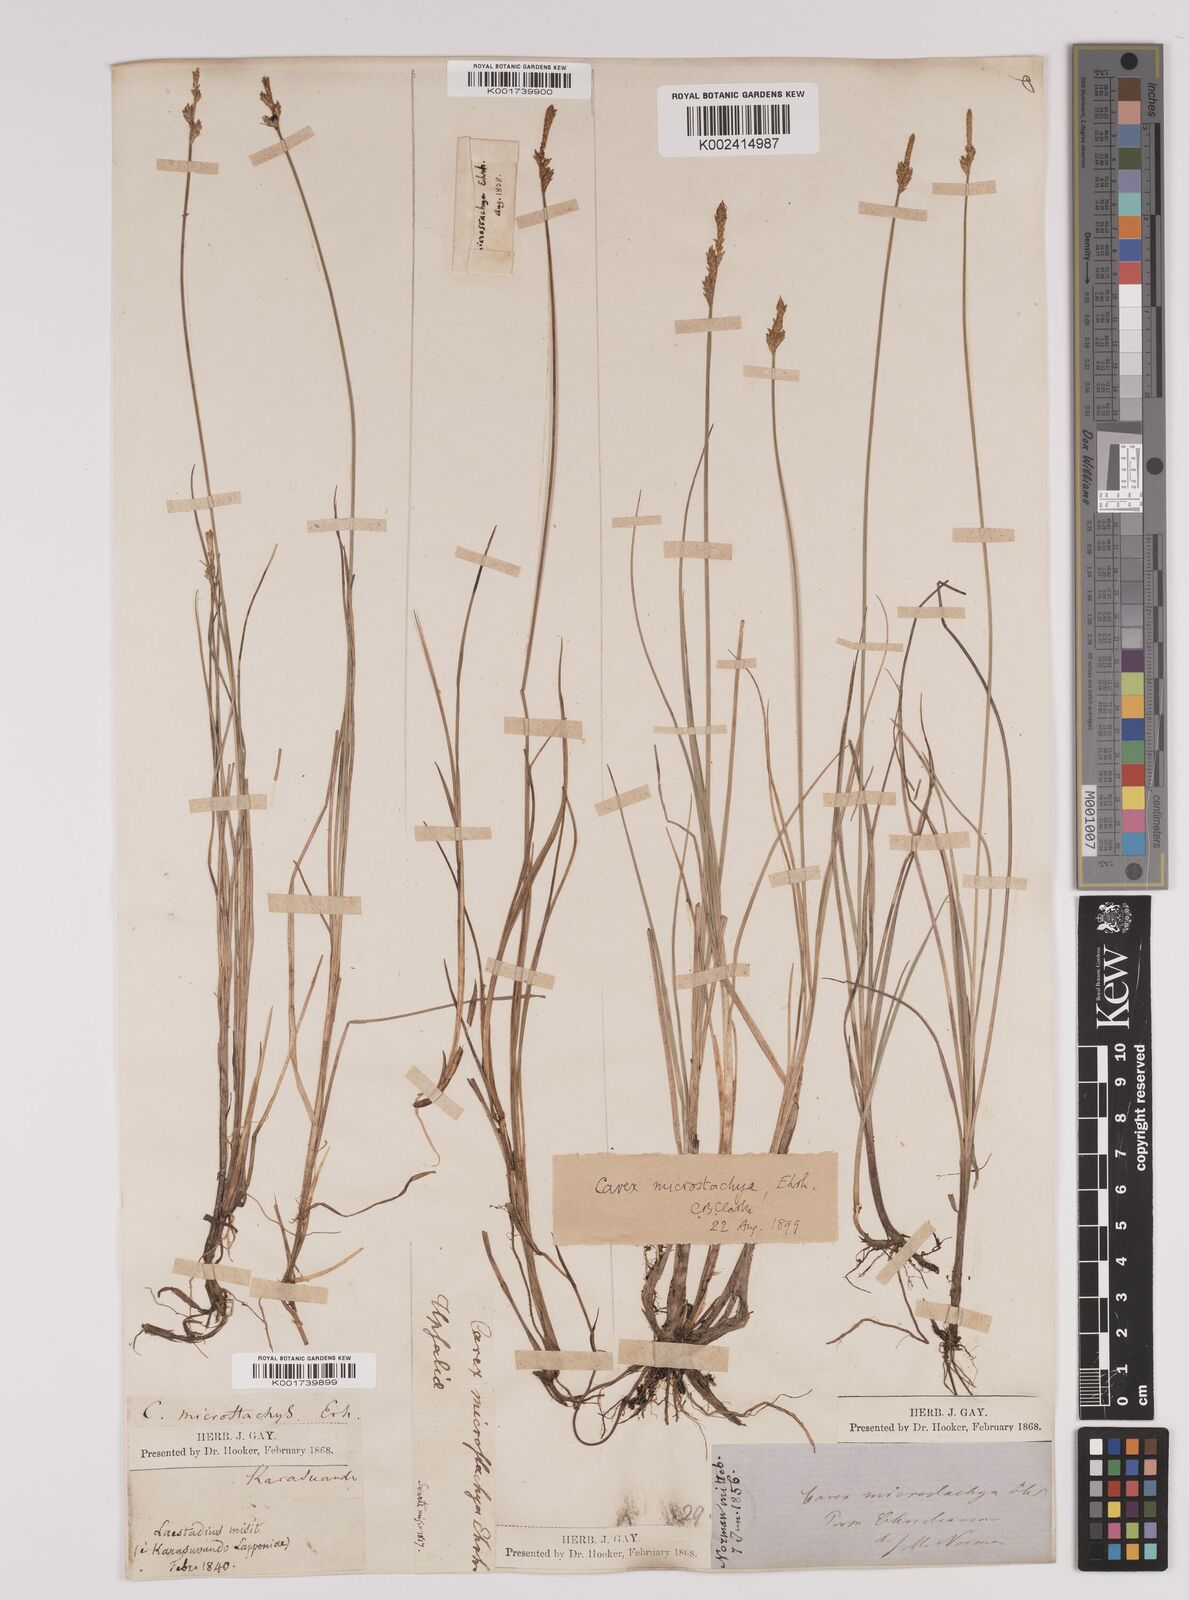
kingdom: Plantae
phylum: Tracheophyta
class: Liliopsida
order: Poales
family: Cyperaceae
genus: Carex
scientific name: Carex dioica
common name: Dioecious sedge
